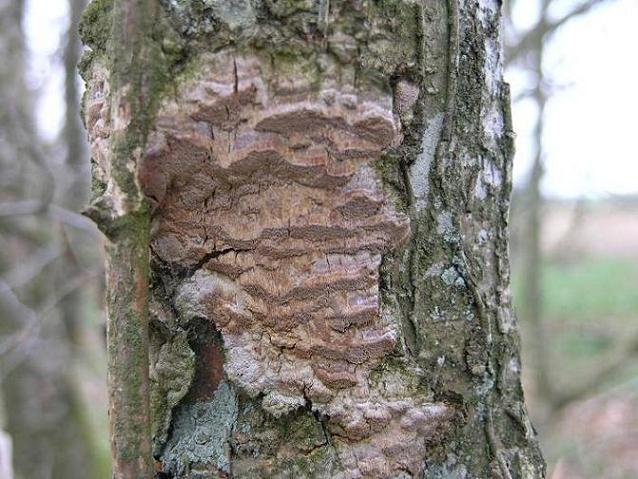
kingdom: Fungi
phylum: Basidiomycota
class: Agaricomycetes
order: Hymenochaetales
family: Hymenochaetaceae
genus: Fuscoporia
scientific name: Fuscoporia ferrea
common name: skorpe-ildporesvamp
